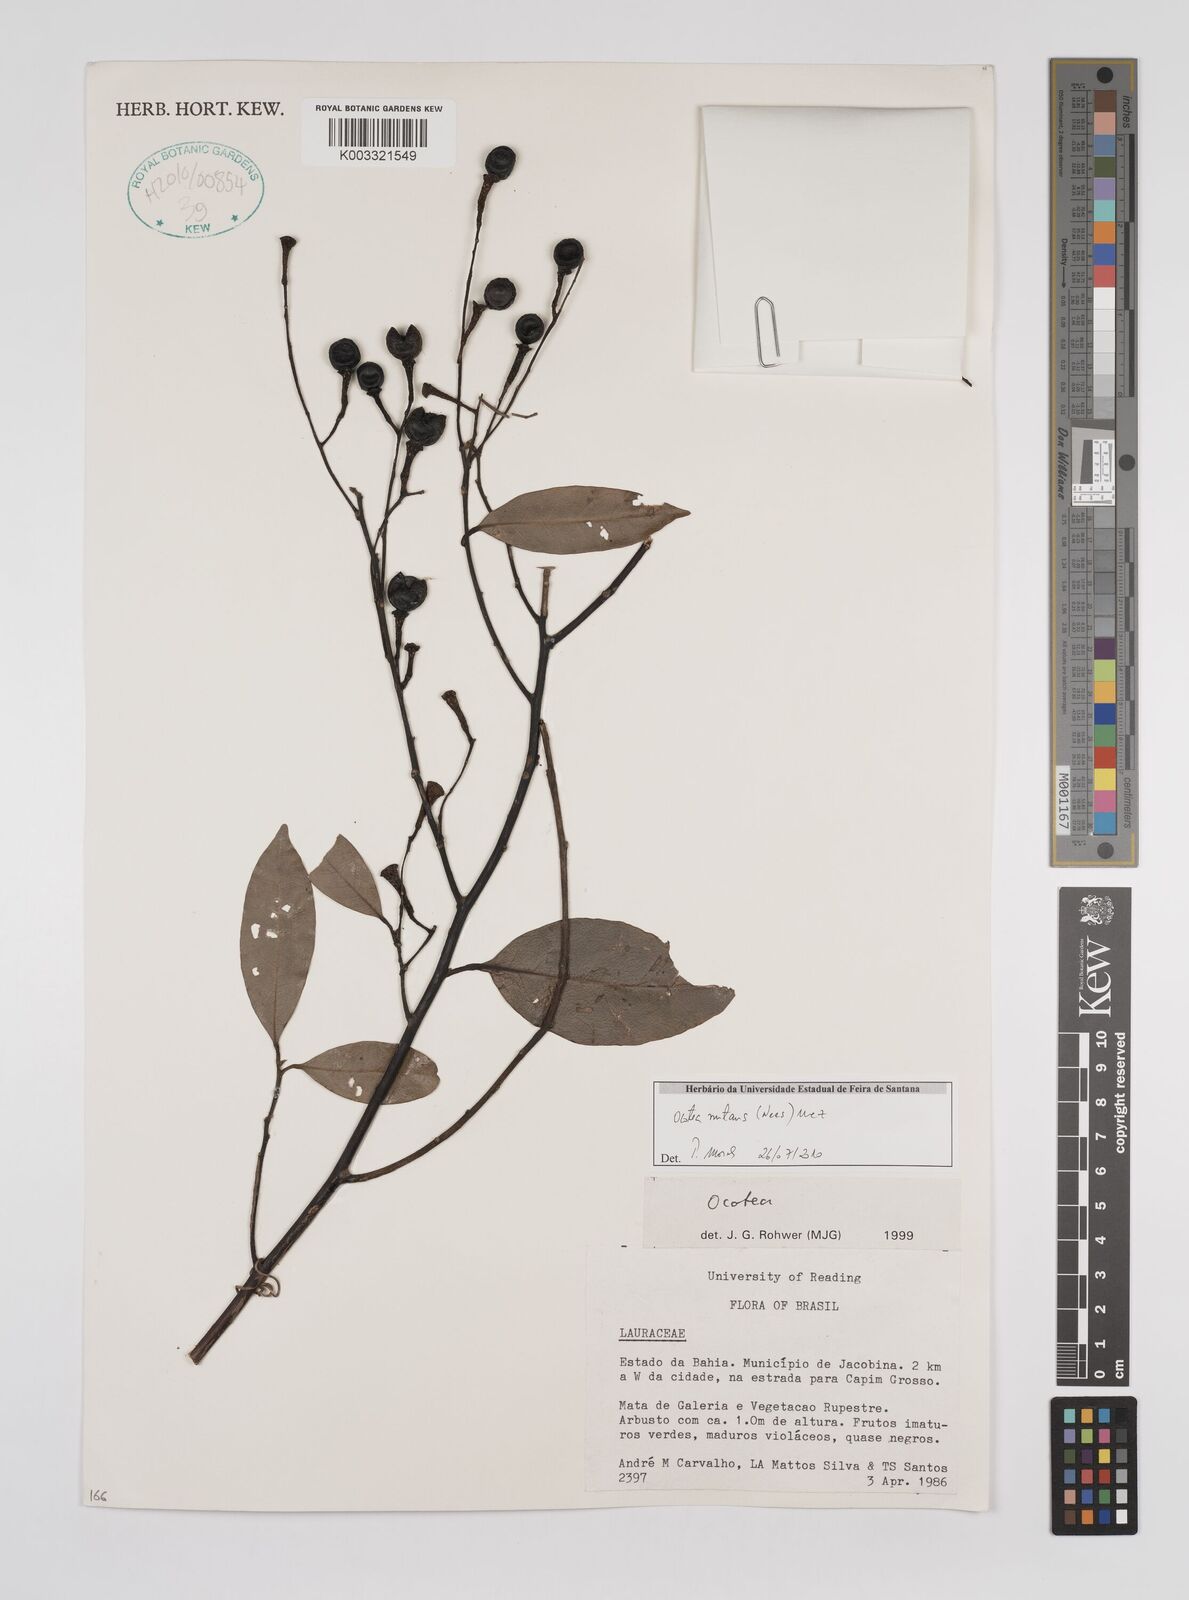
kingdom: Plantae
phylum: Tracheophyta
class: Magnoliopsida
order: Laurales
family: Lauraceae
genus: Mespilodaphne
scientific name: Mespilodaphne nutans
